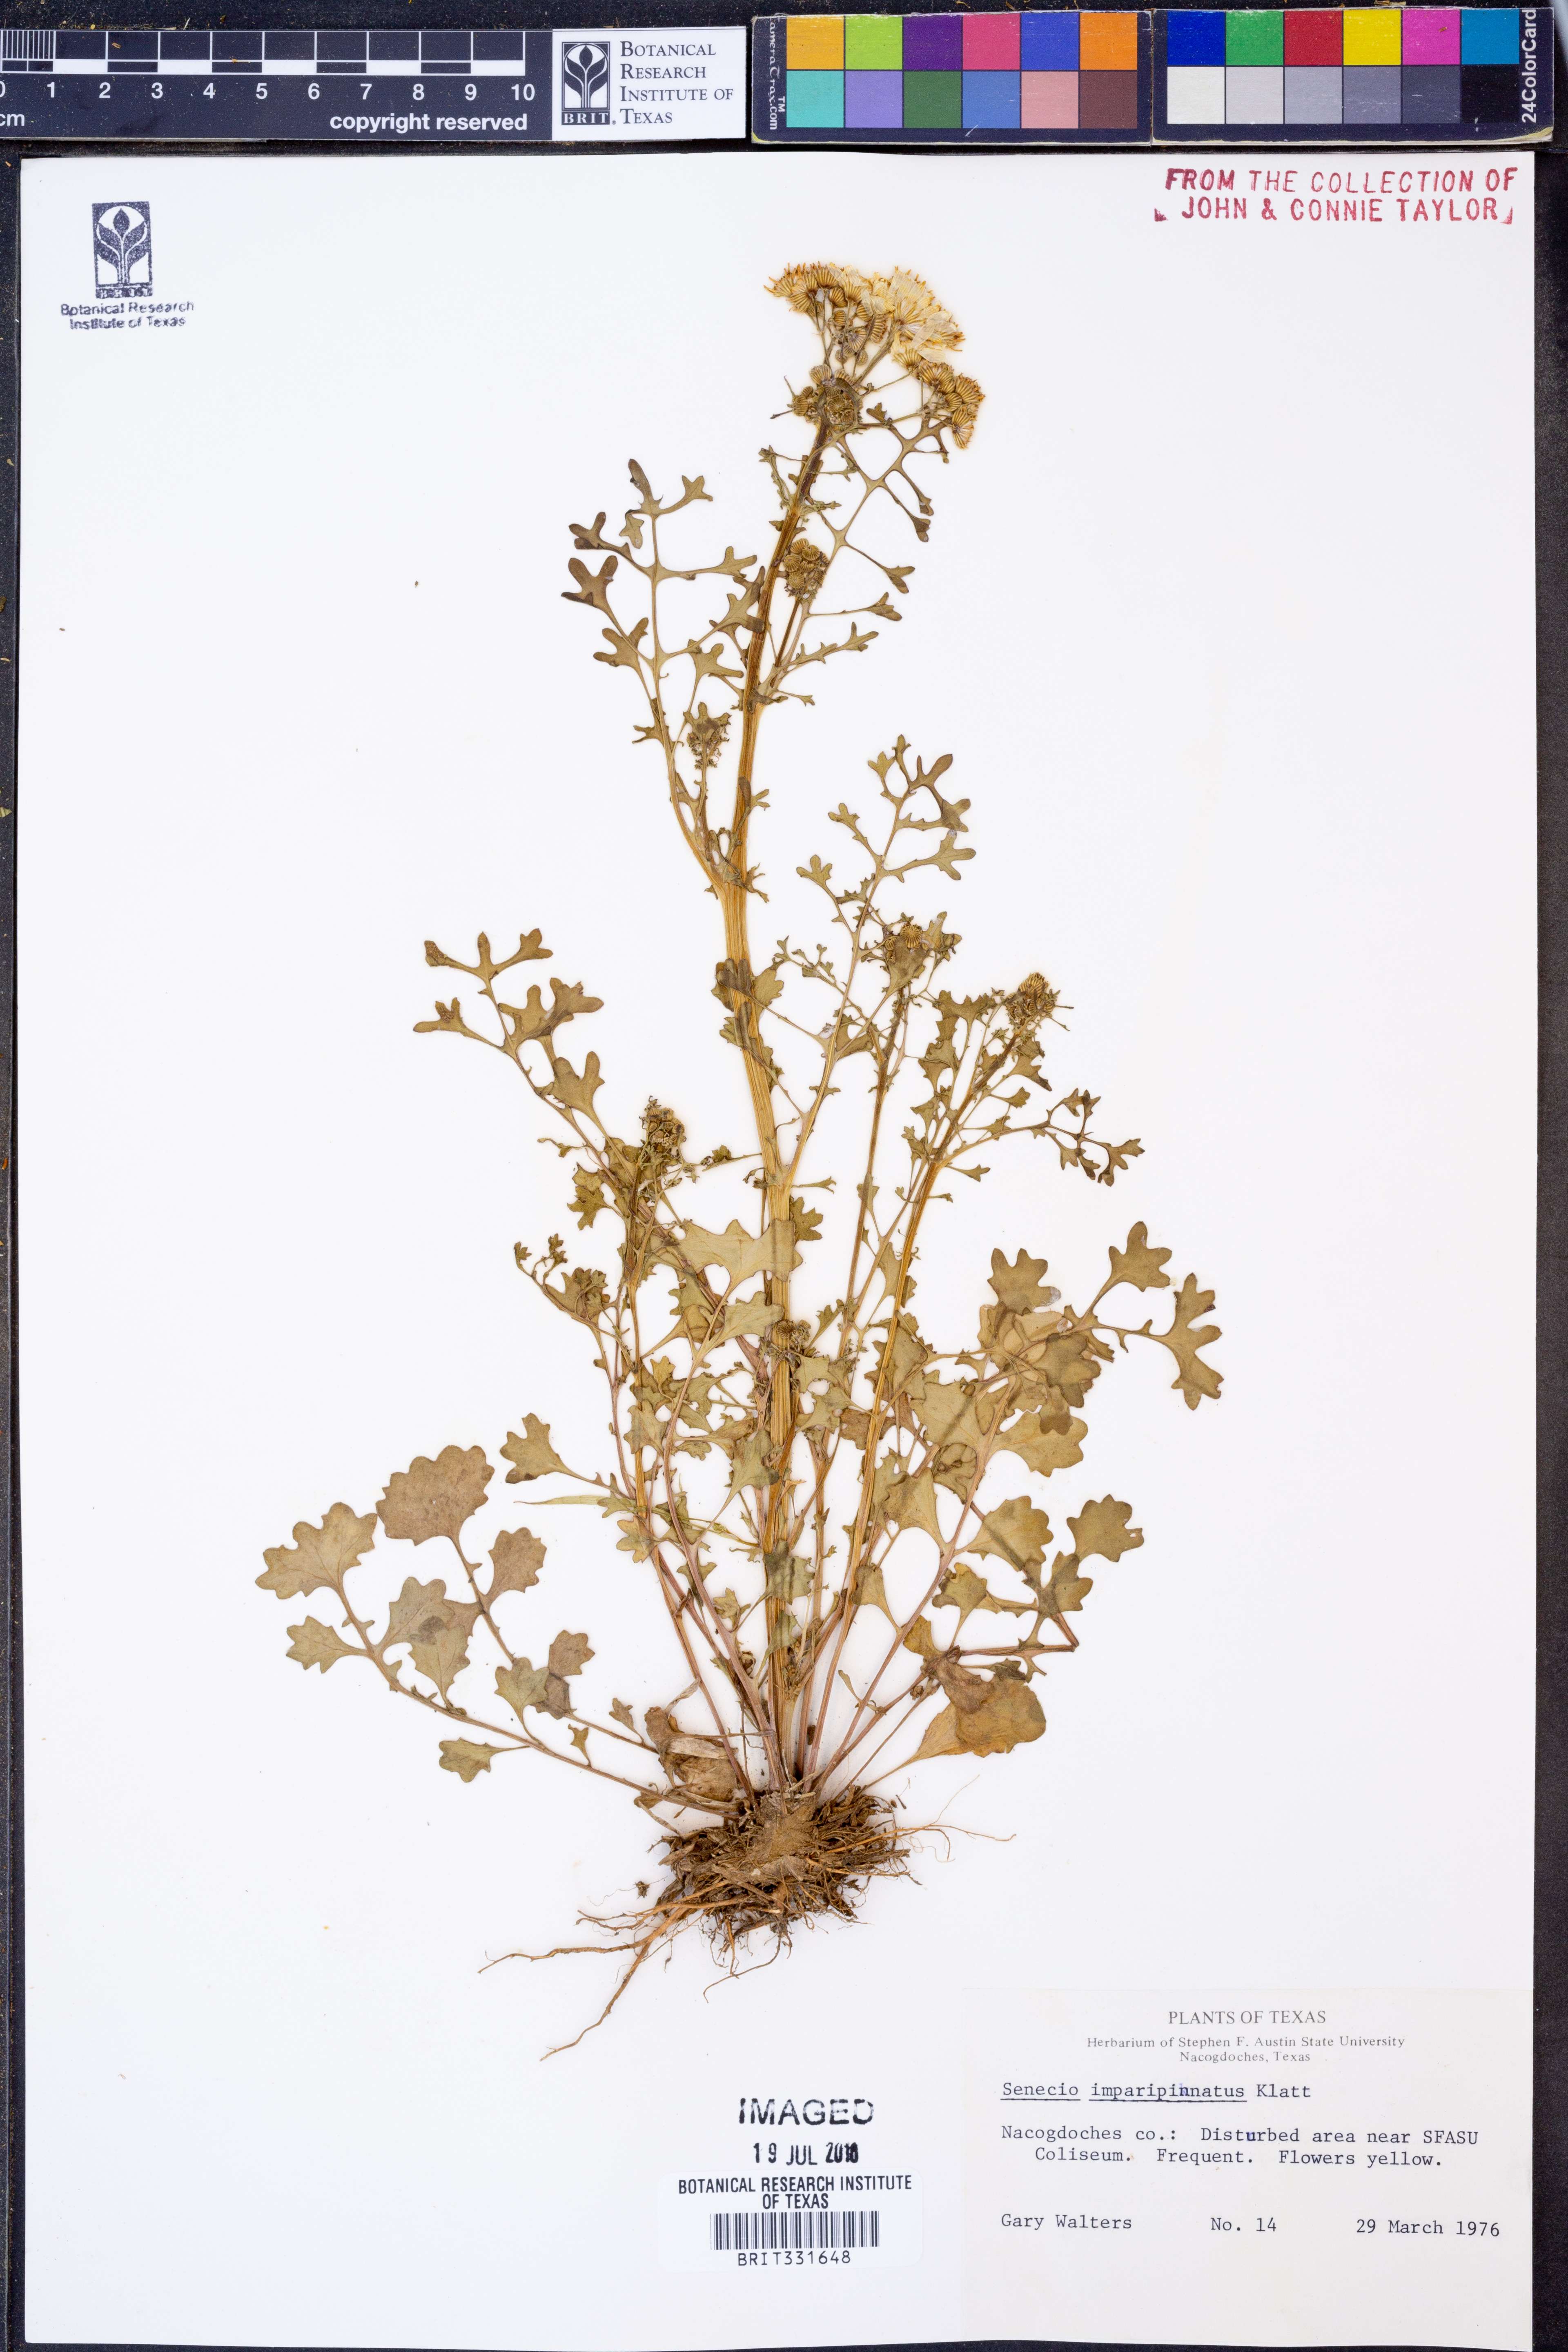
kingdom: Plantae
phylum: Tracheophyta
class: Magnoliopsida
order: Asterales
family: Asteraceae
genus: Packera
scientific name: Packera tampicana
